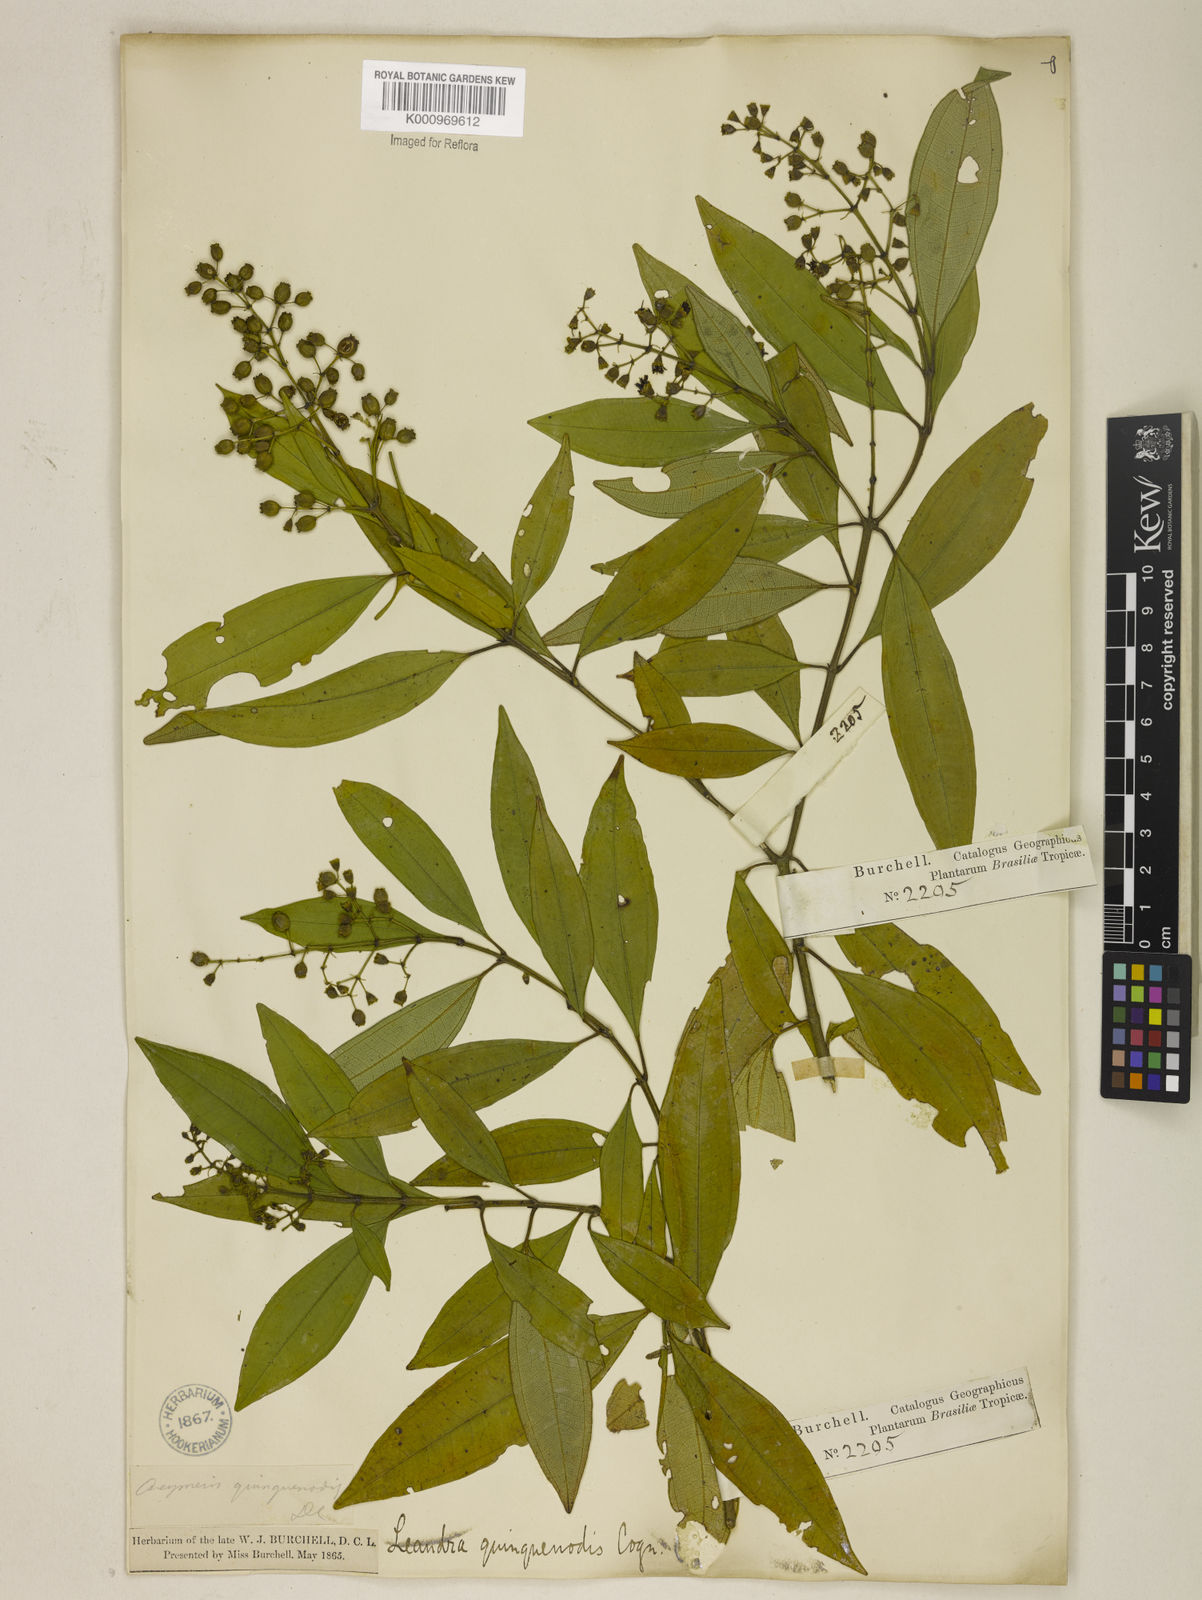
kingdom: Plantae
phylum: Tracheophyta
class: Magnoliopsida
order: Myrtales
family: Melastomataceae
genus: Miconia
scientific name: Miconia quinquenodis
